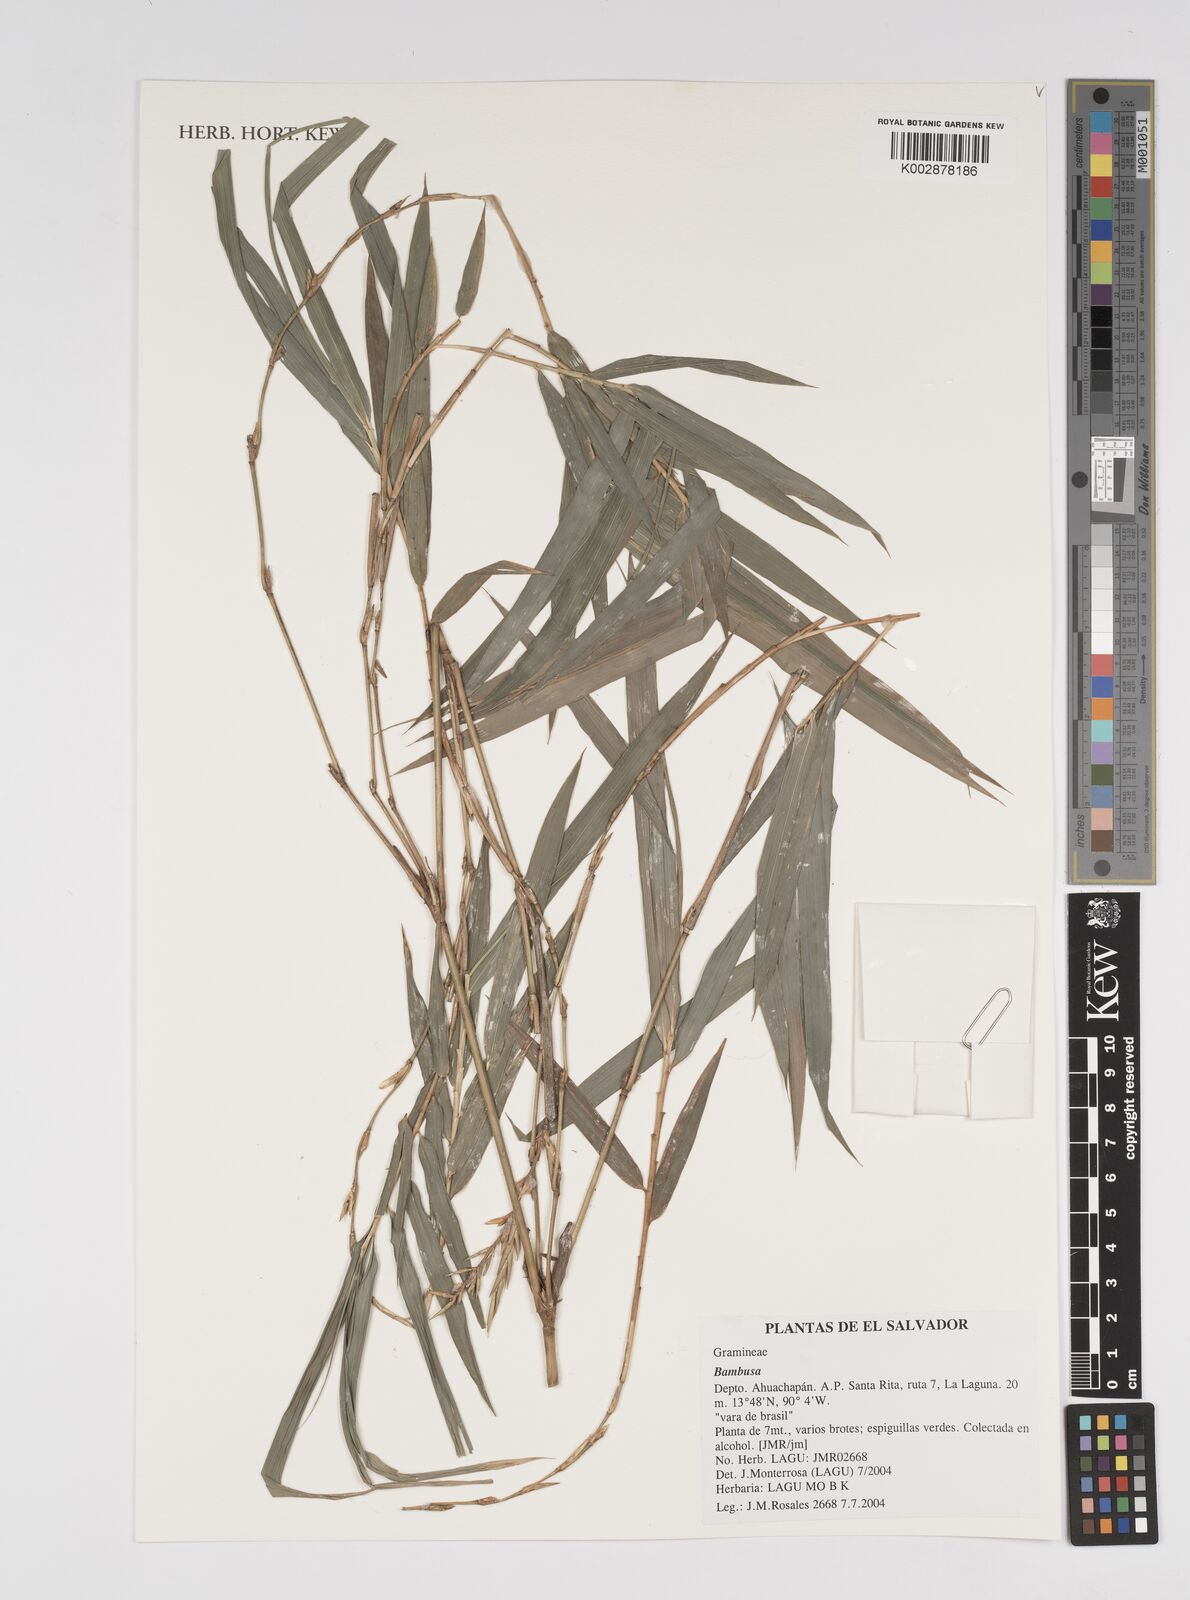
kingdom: Plantae
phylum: Tracheophyta
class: Liliopsida
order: Poales
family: Poaceae
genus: Bambusa
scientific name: Bambusa
